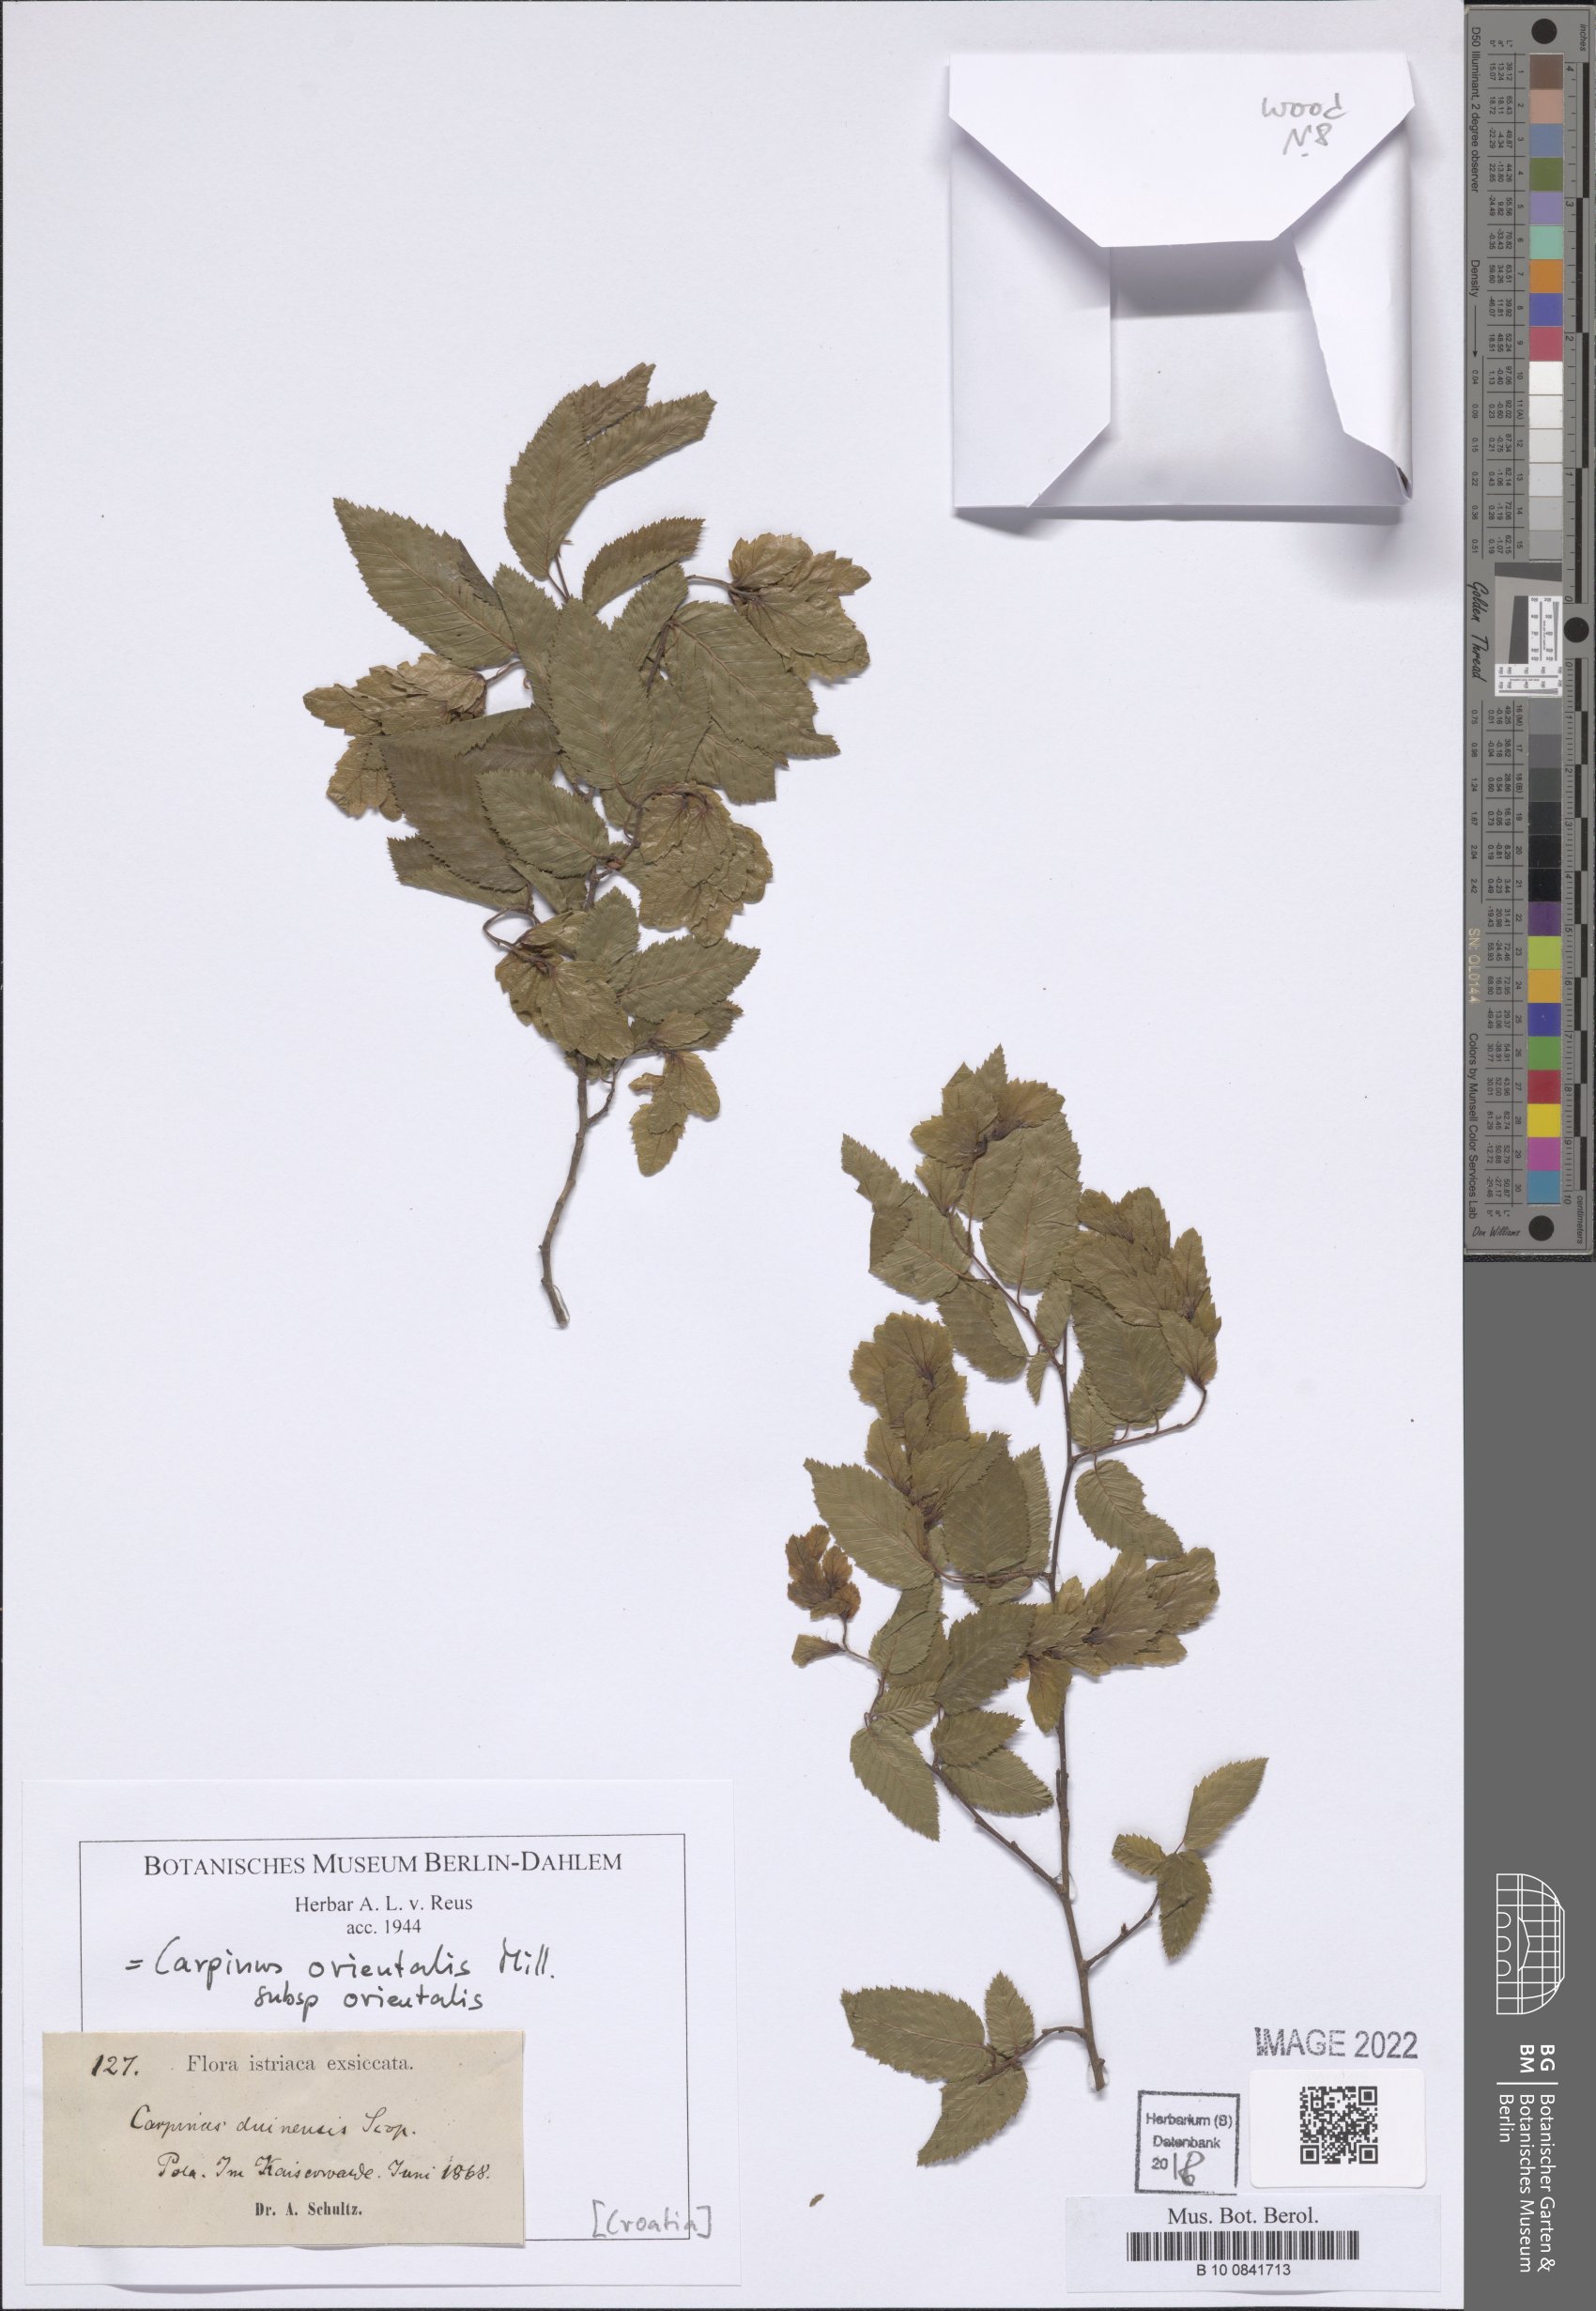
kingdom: Plantae
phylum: Tracheophyta
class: Magnoliopsida
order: Fagales
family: Betulaceae
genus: Carpinus
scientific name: Carpinus orientalis
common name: Eastern hornbeam
